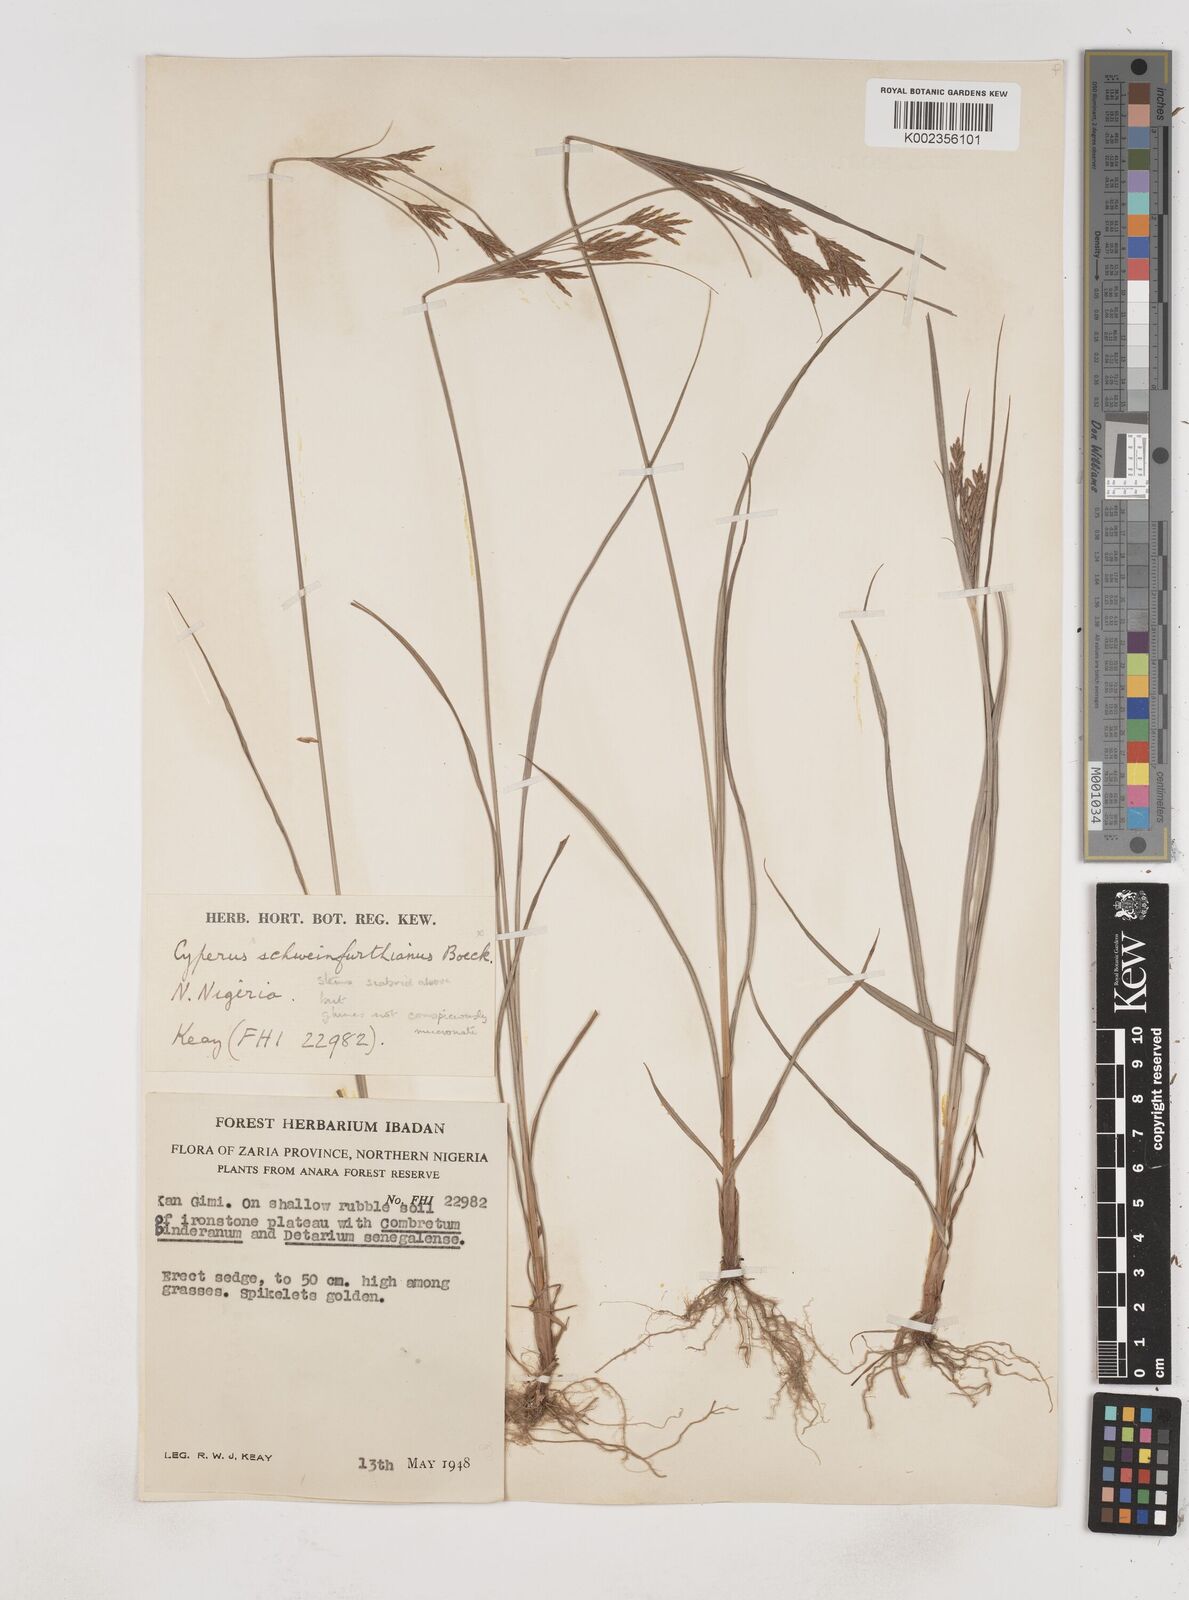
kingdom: Plantae
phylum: Tracheophyta
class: Liliopsida
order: Poales
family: Cyperaceae
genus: Cyperus
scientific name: Cyperus tenuiculmis
